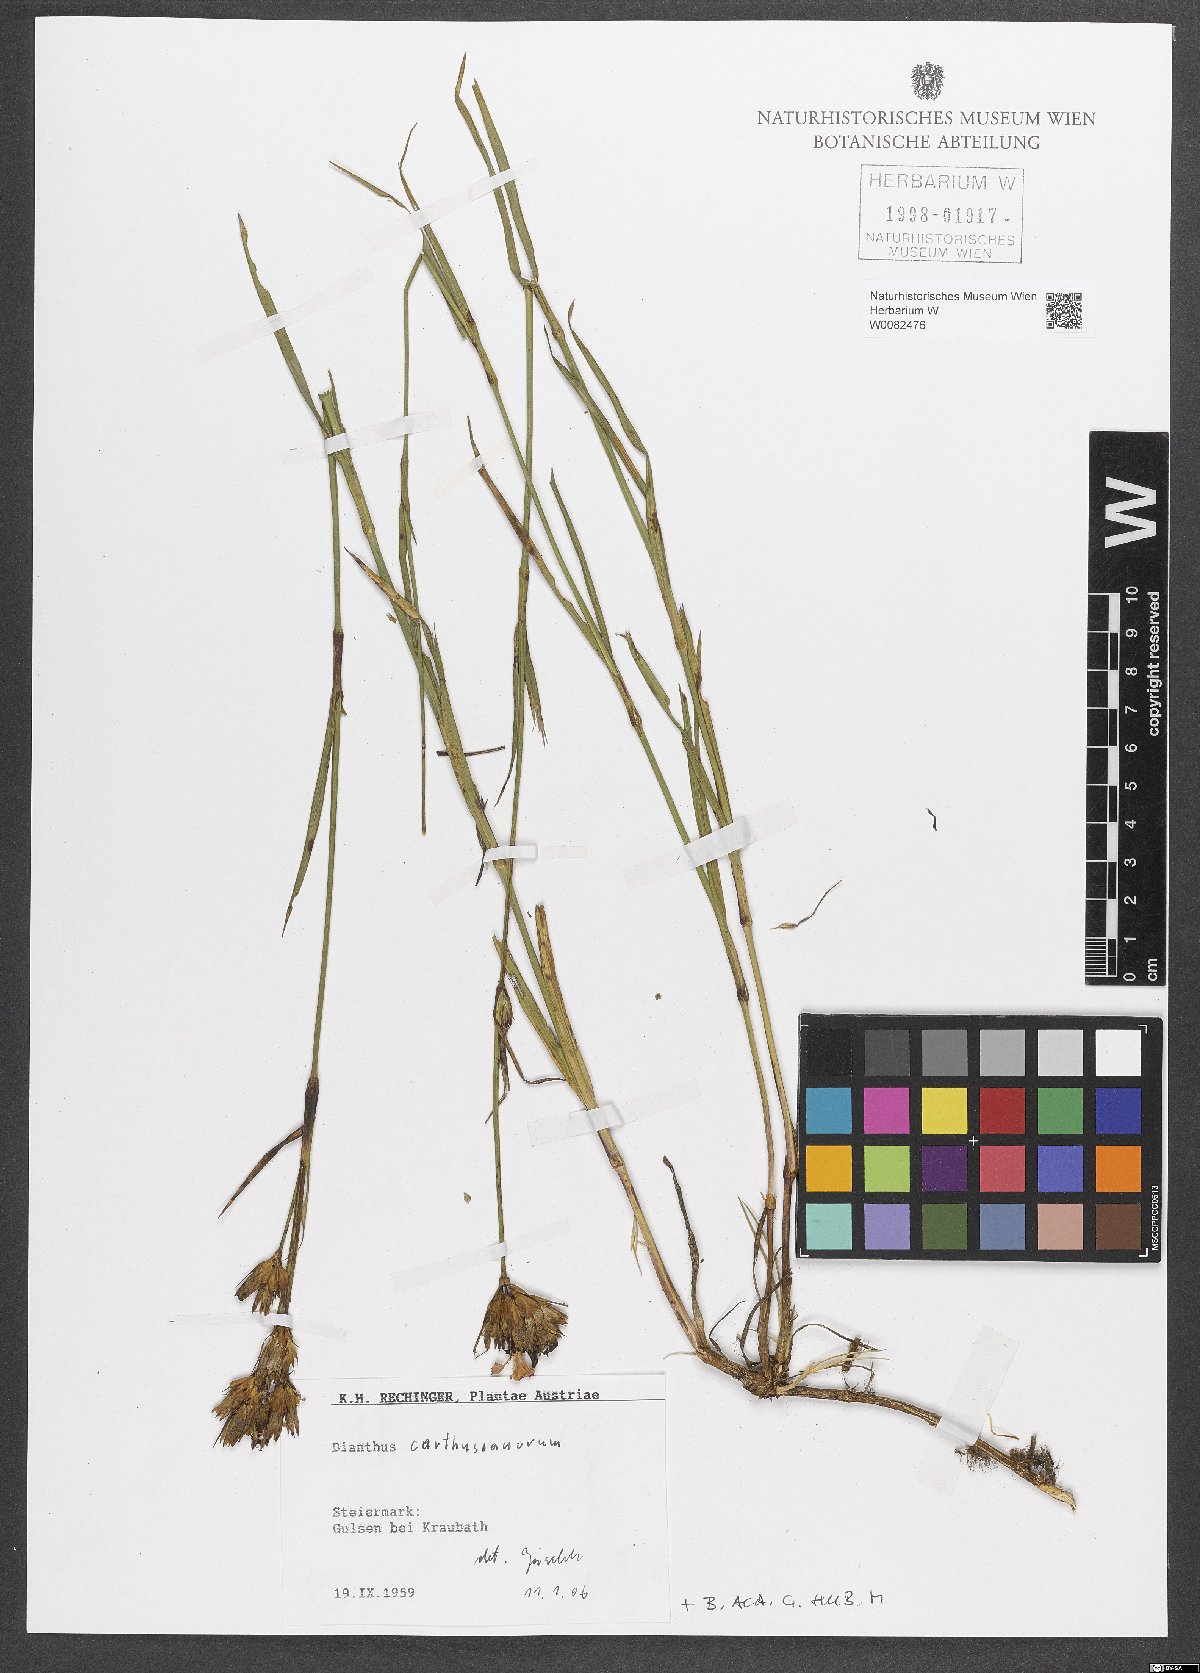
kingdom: Plantae
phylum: Tracheophyta
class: Magnoliopsida
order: Caryophyllales
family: Caryophyllaceae
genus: Dianthus
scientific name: Dianthus carthusianorum
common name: Carthusian pink
